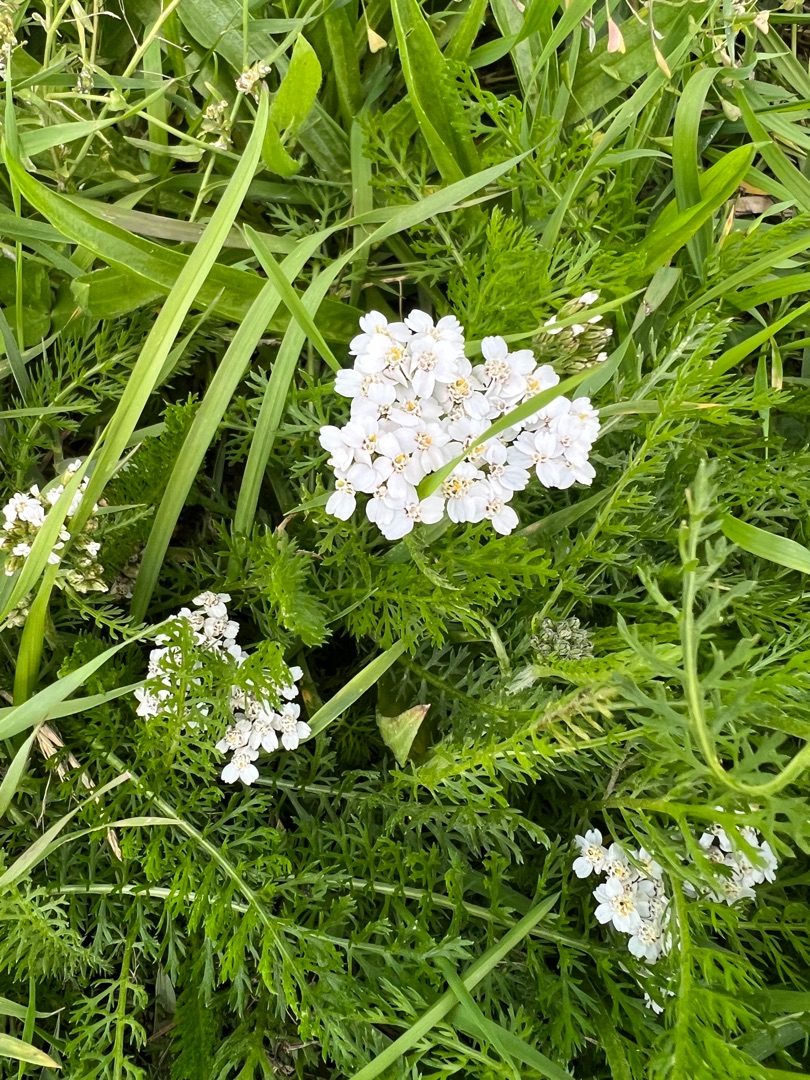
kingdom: Plantae
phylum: Tracheophyta
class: Magnoliopsida
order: Asterales
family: Asteraceae
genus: Achillea
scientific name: Achillea millefolium
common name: Almindelig røllike
